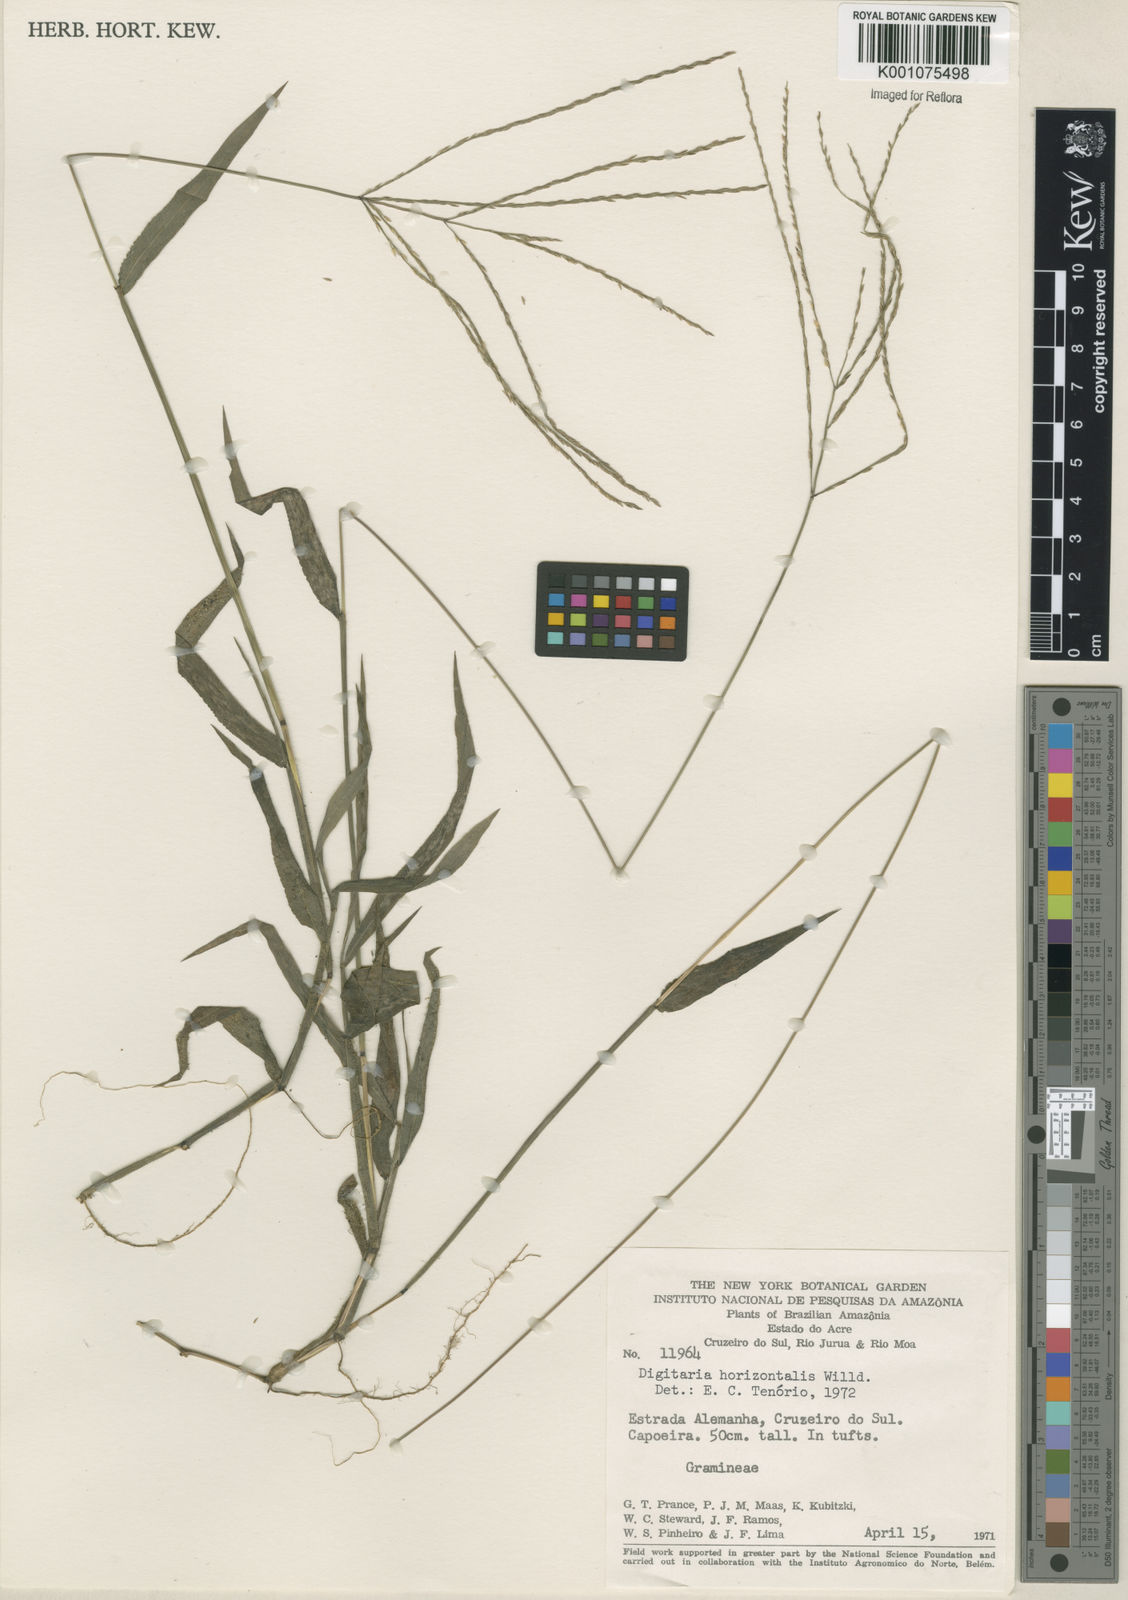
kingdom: Plantae
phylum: Tracheophyta
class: Liliopsida
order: Poales
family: Poaceae
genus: Digitaria
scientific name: Digitaria horizontalis
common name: Jamaican crabgrass
